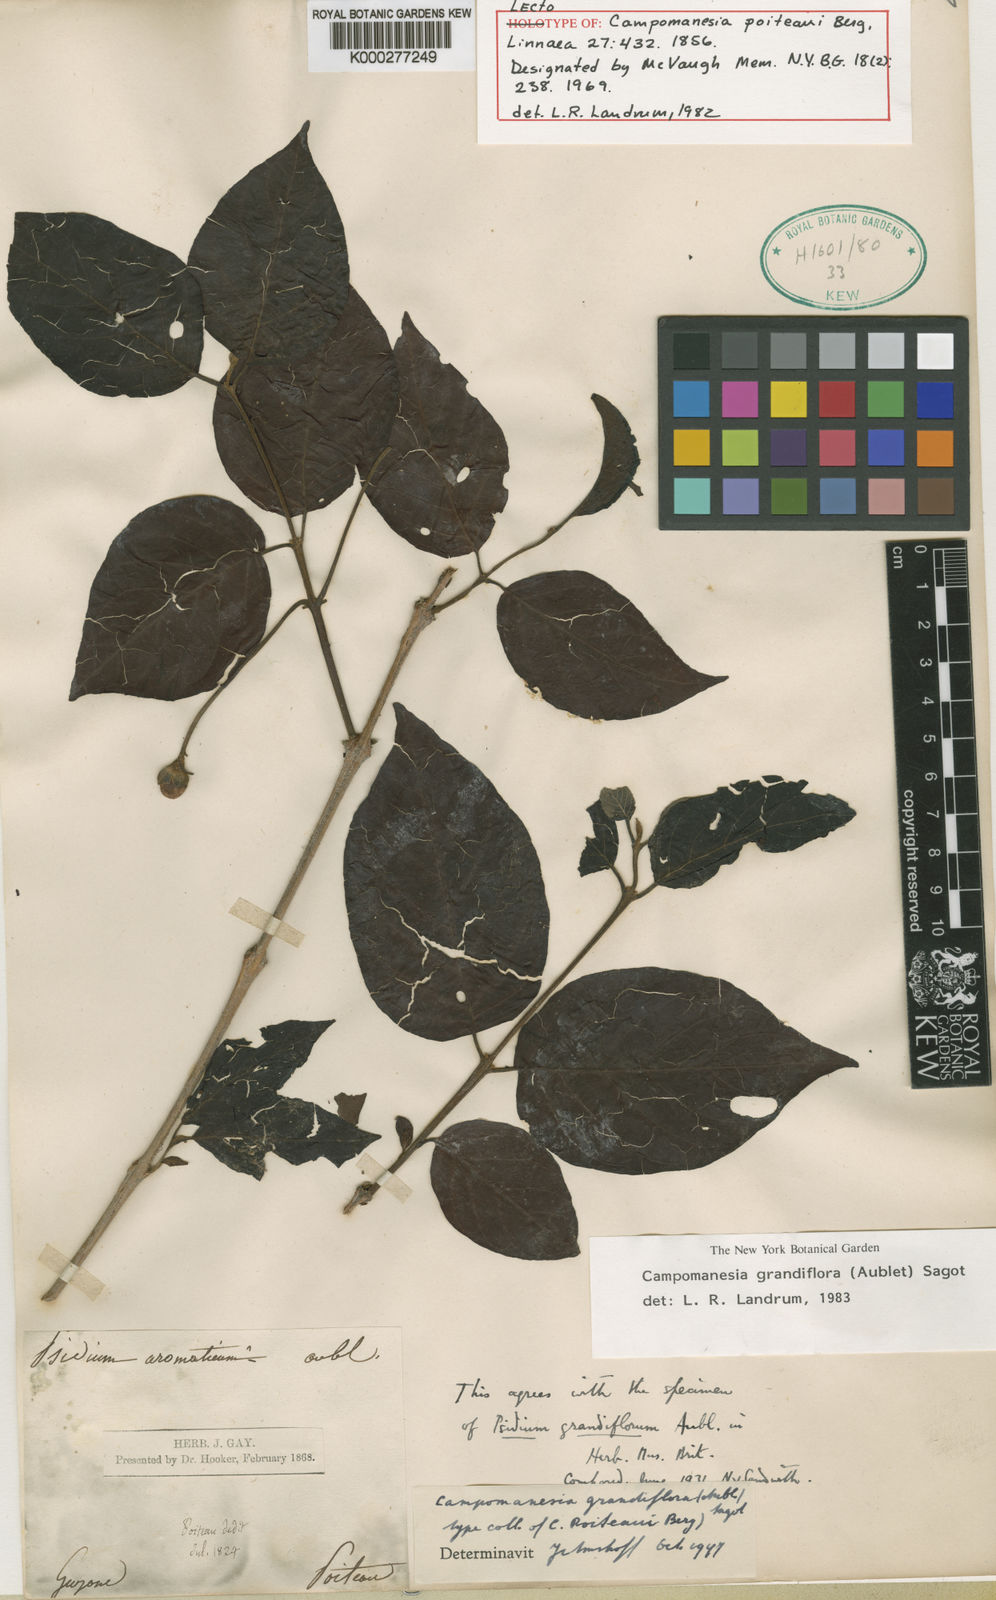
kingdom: Plantae
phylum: Tracheophyta
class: Magnoliopsida
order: Myrtales
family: Myrtaceae
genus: Campomanesia
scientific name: Campomanesia grandiflora
